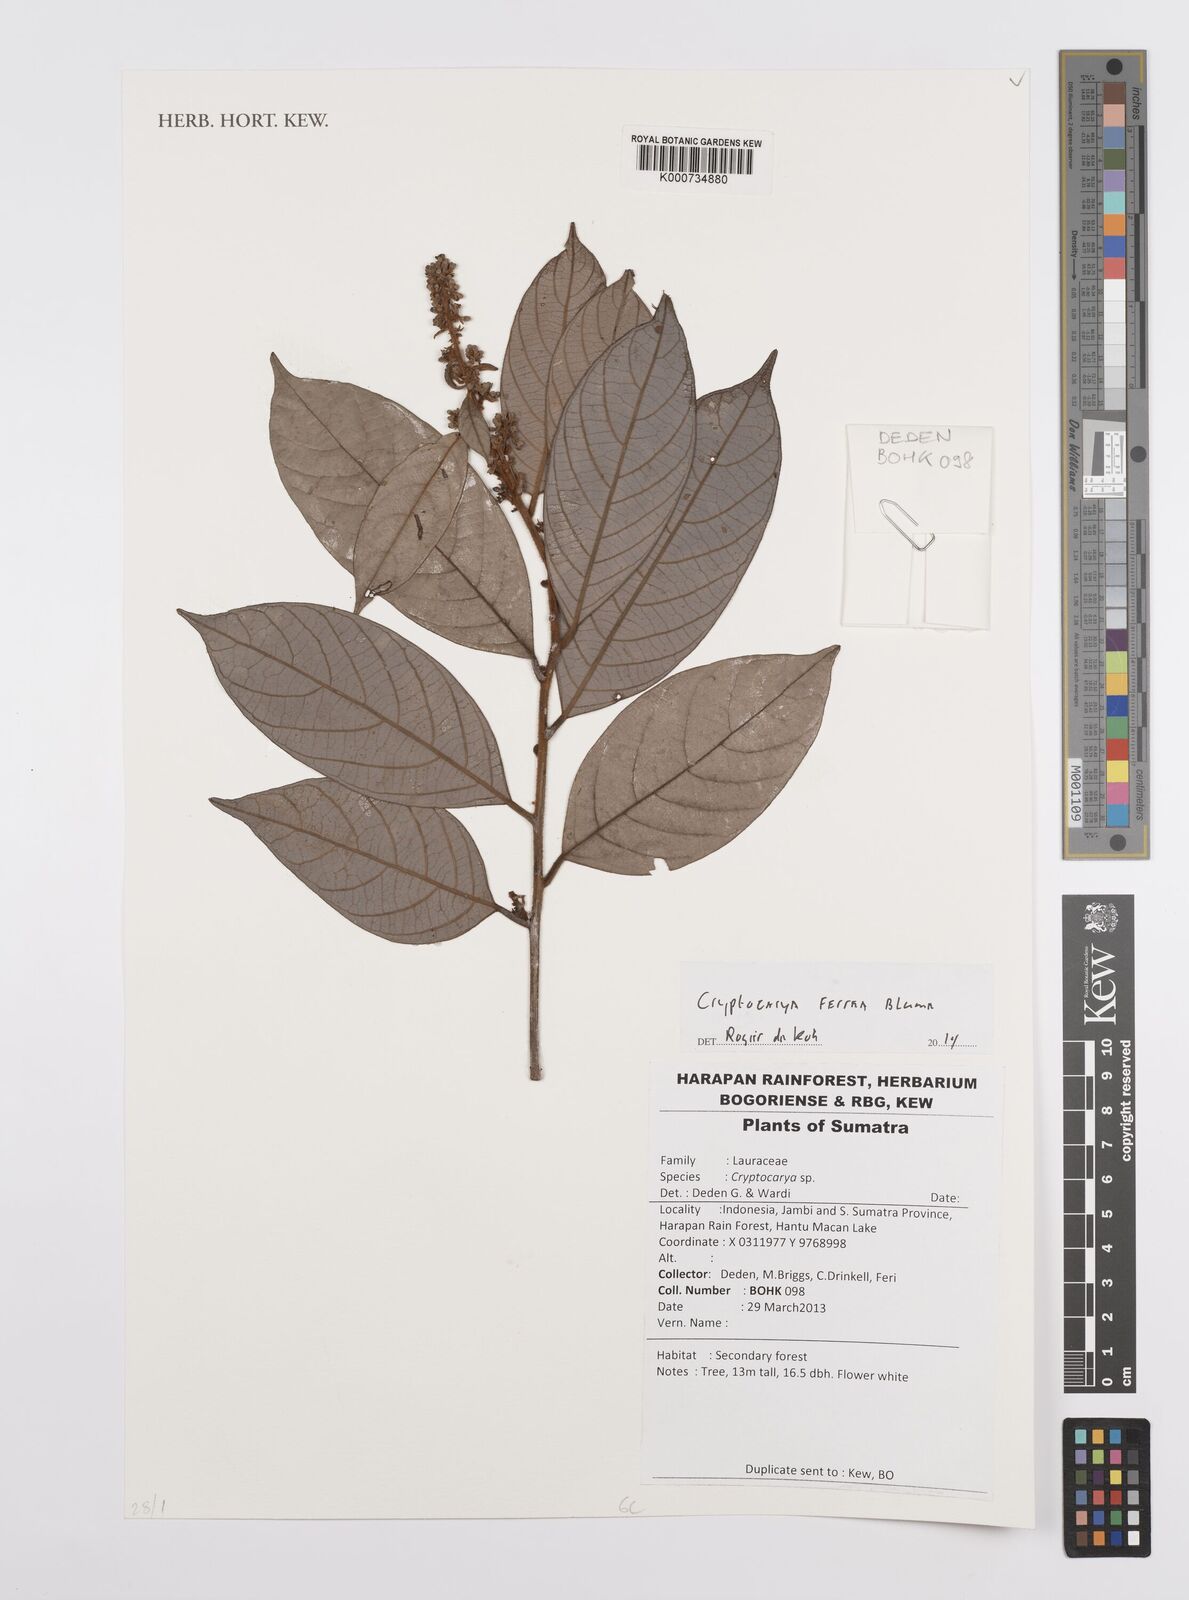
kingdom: Plantae
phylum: Tracheophyta
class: Magnoliopsida
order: Laurales
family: Lauraceae
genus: Cryptocarya
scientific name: Cryptocarya ferrea
